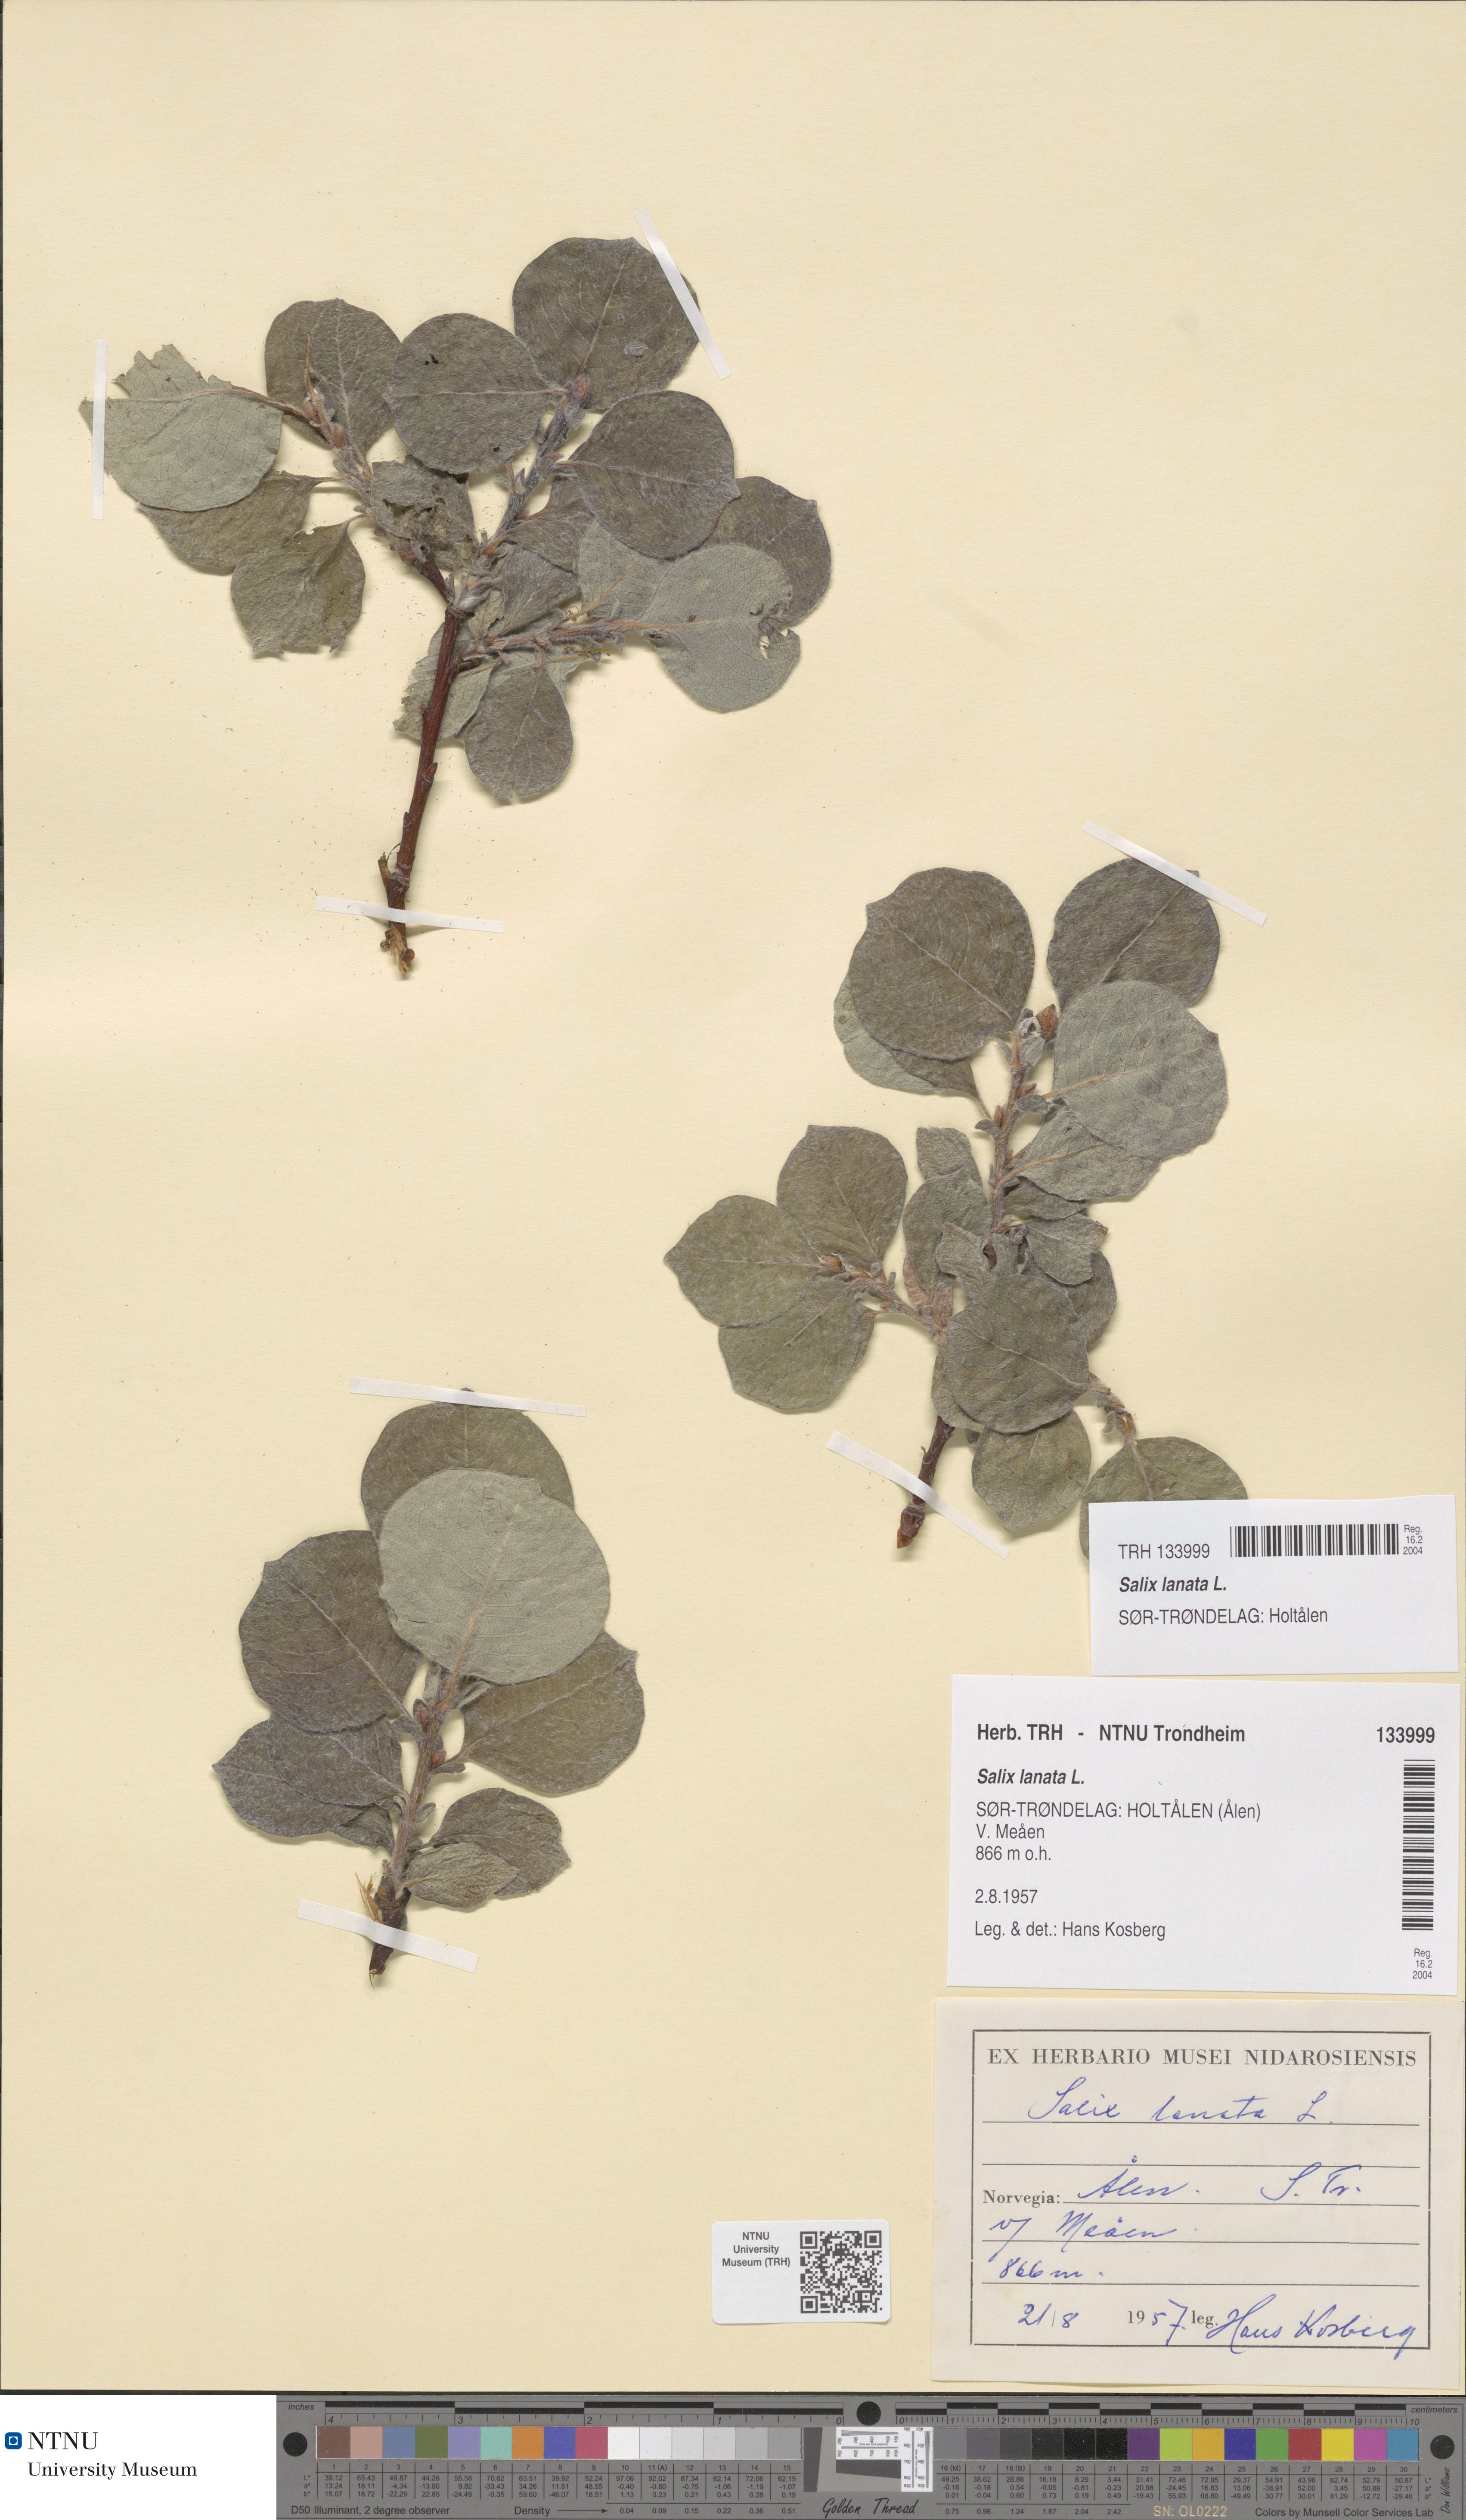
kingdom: Plantae
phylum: Tracheophyta
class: Magnoliopsida
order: Malpighiales
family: Salicaceae
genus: Salix
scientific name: Salix lanata
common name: Woolly willow
